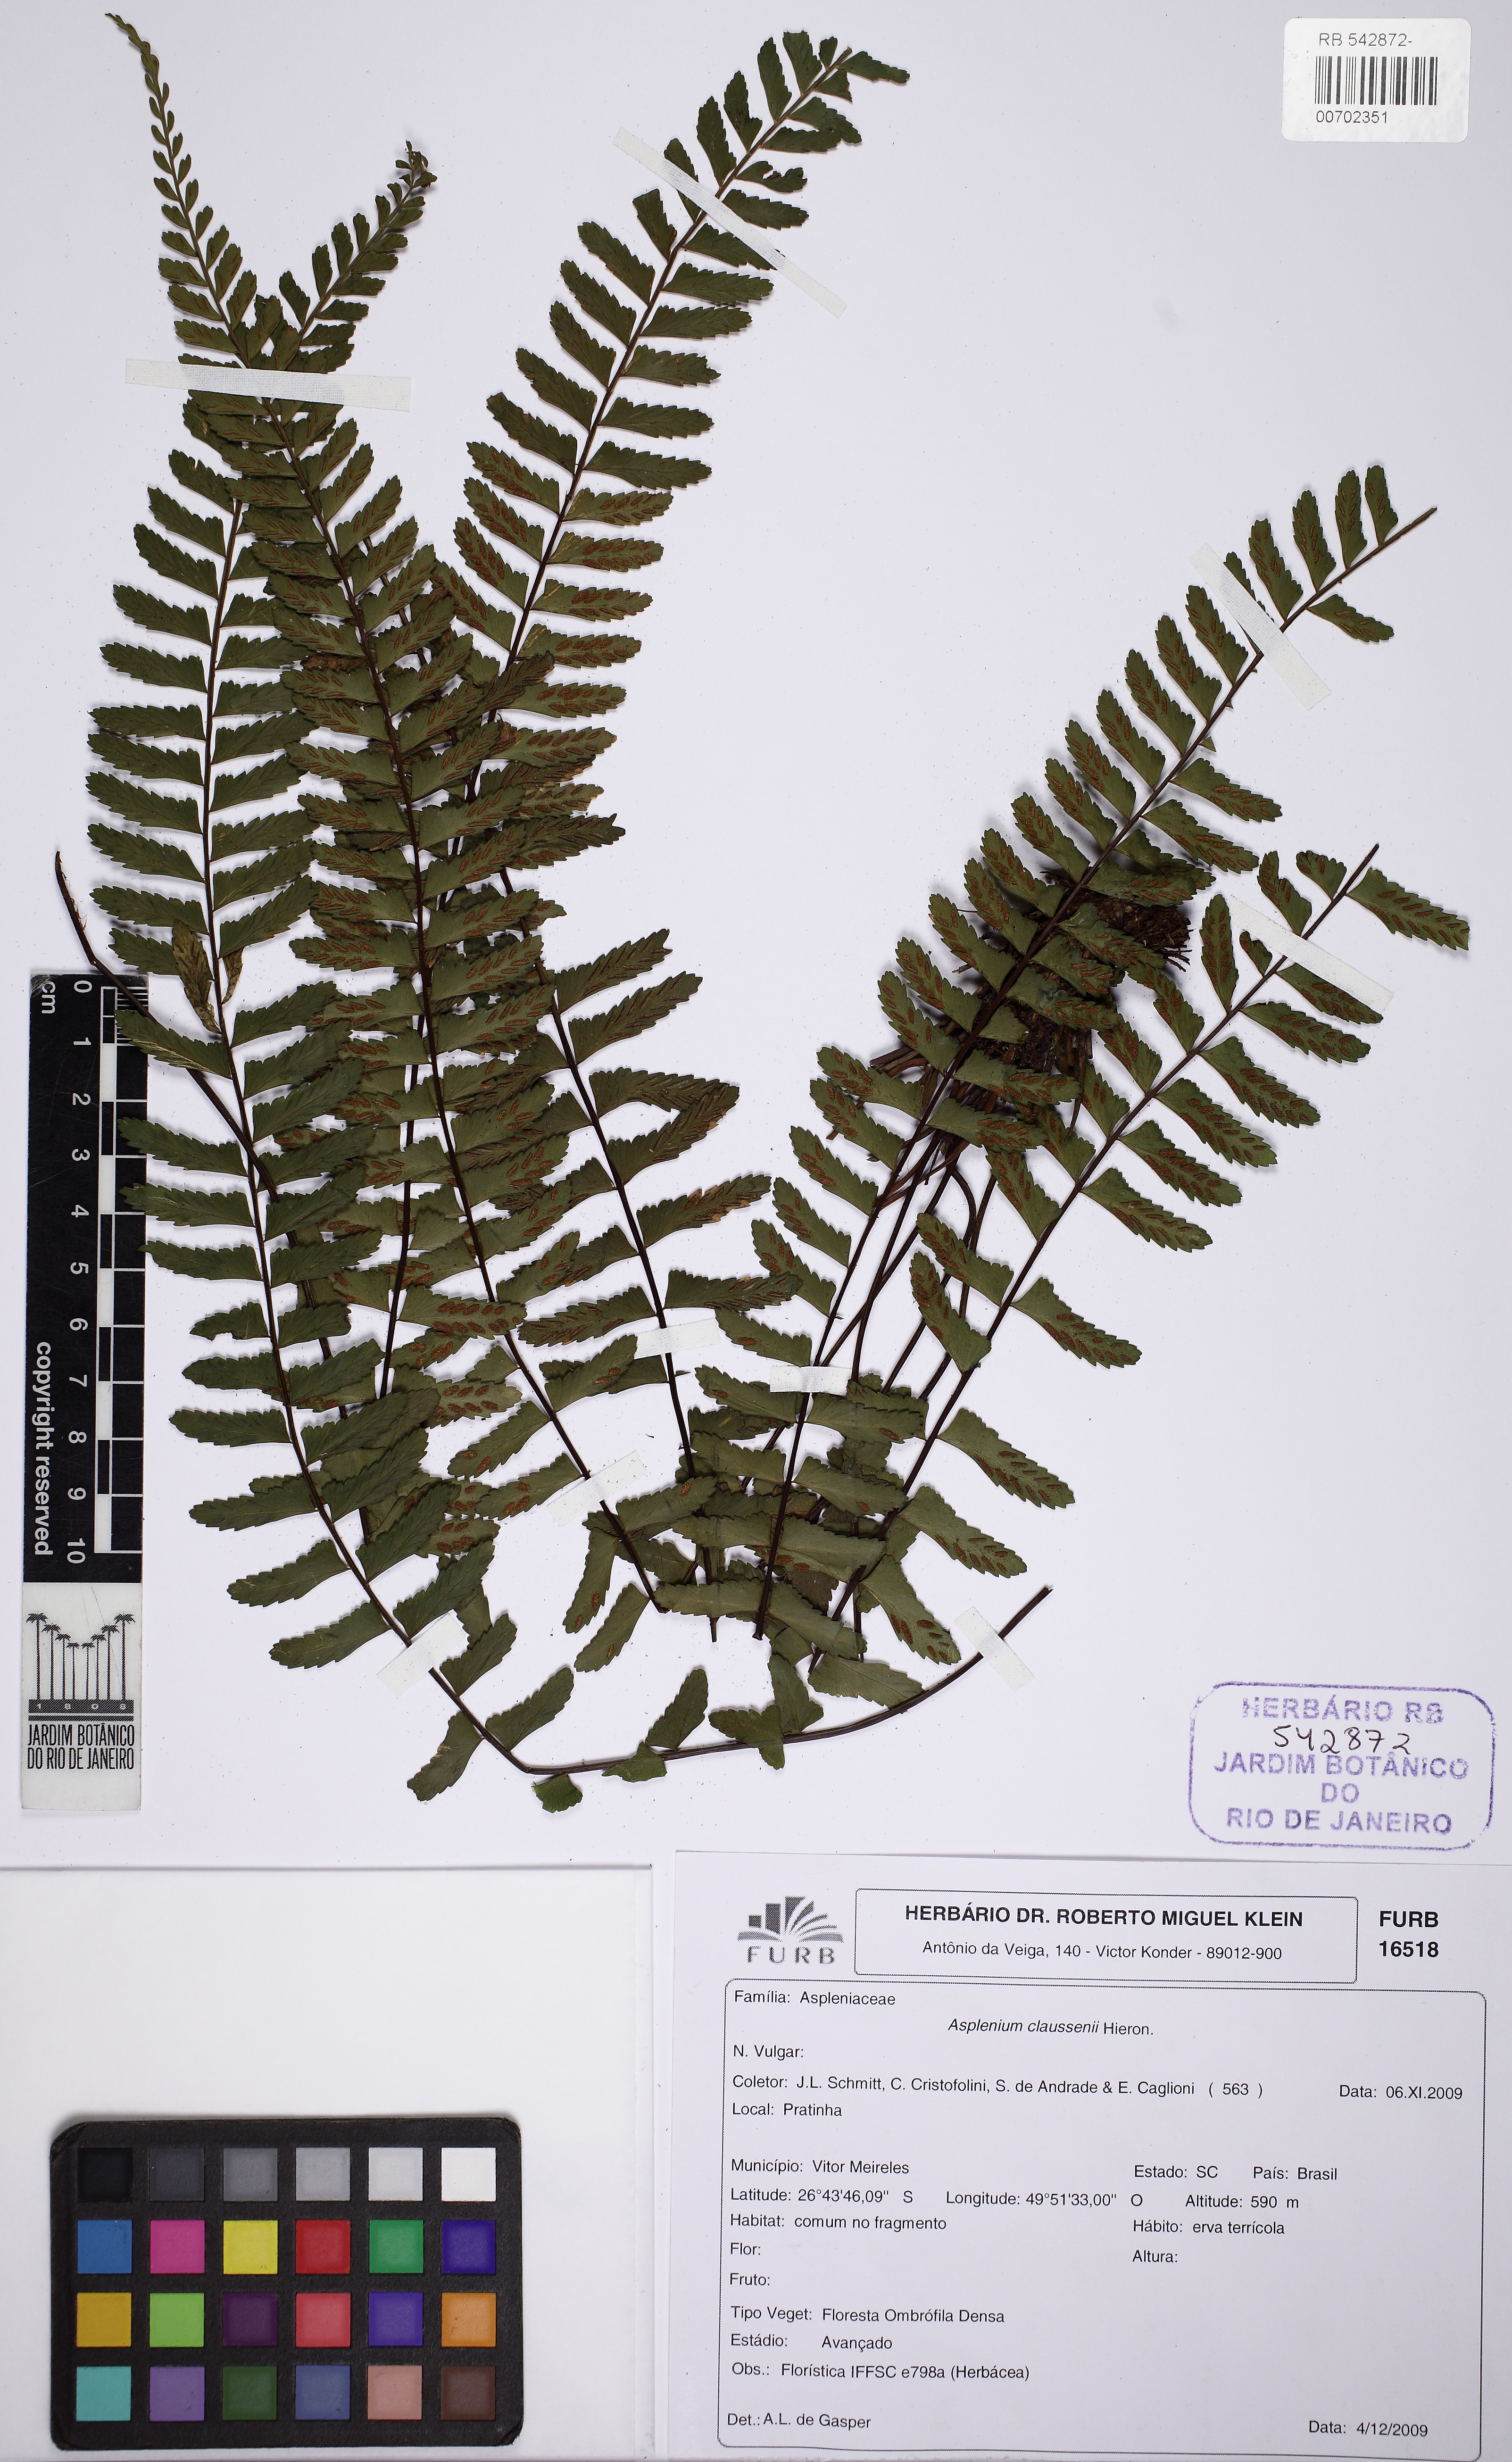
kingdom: Plantae
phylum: Tracheophyta
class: Polypodiopsida
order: Polypodiales
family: Aspleniaceae
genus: Asplenium
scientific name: Asplenium claussenii
